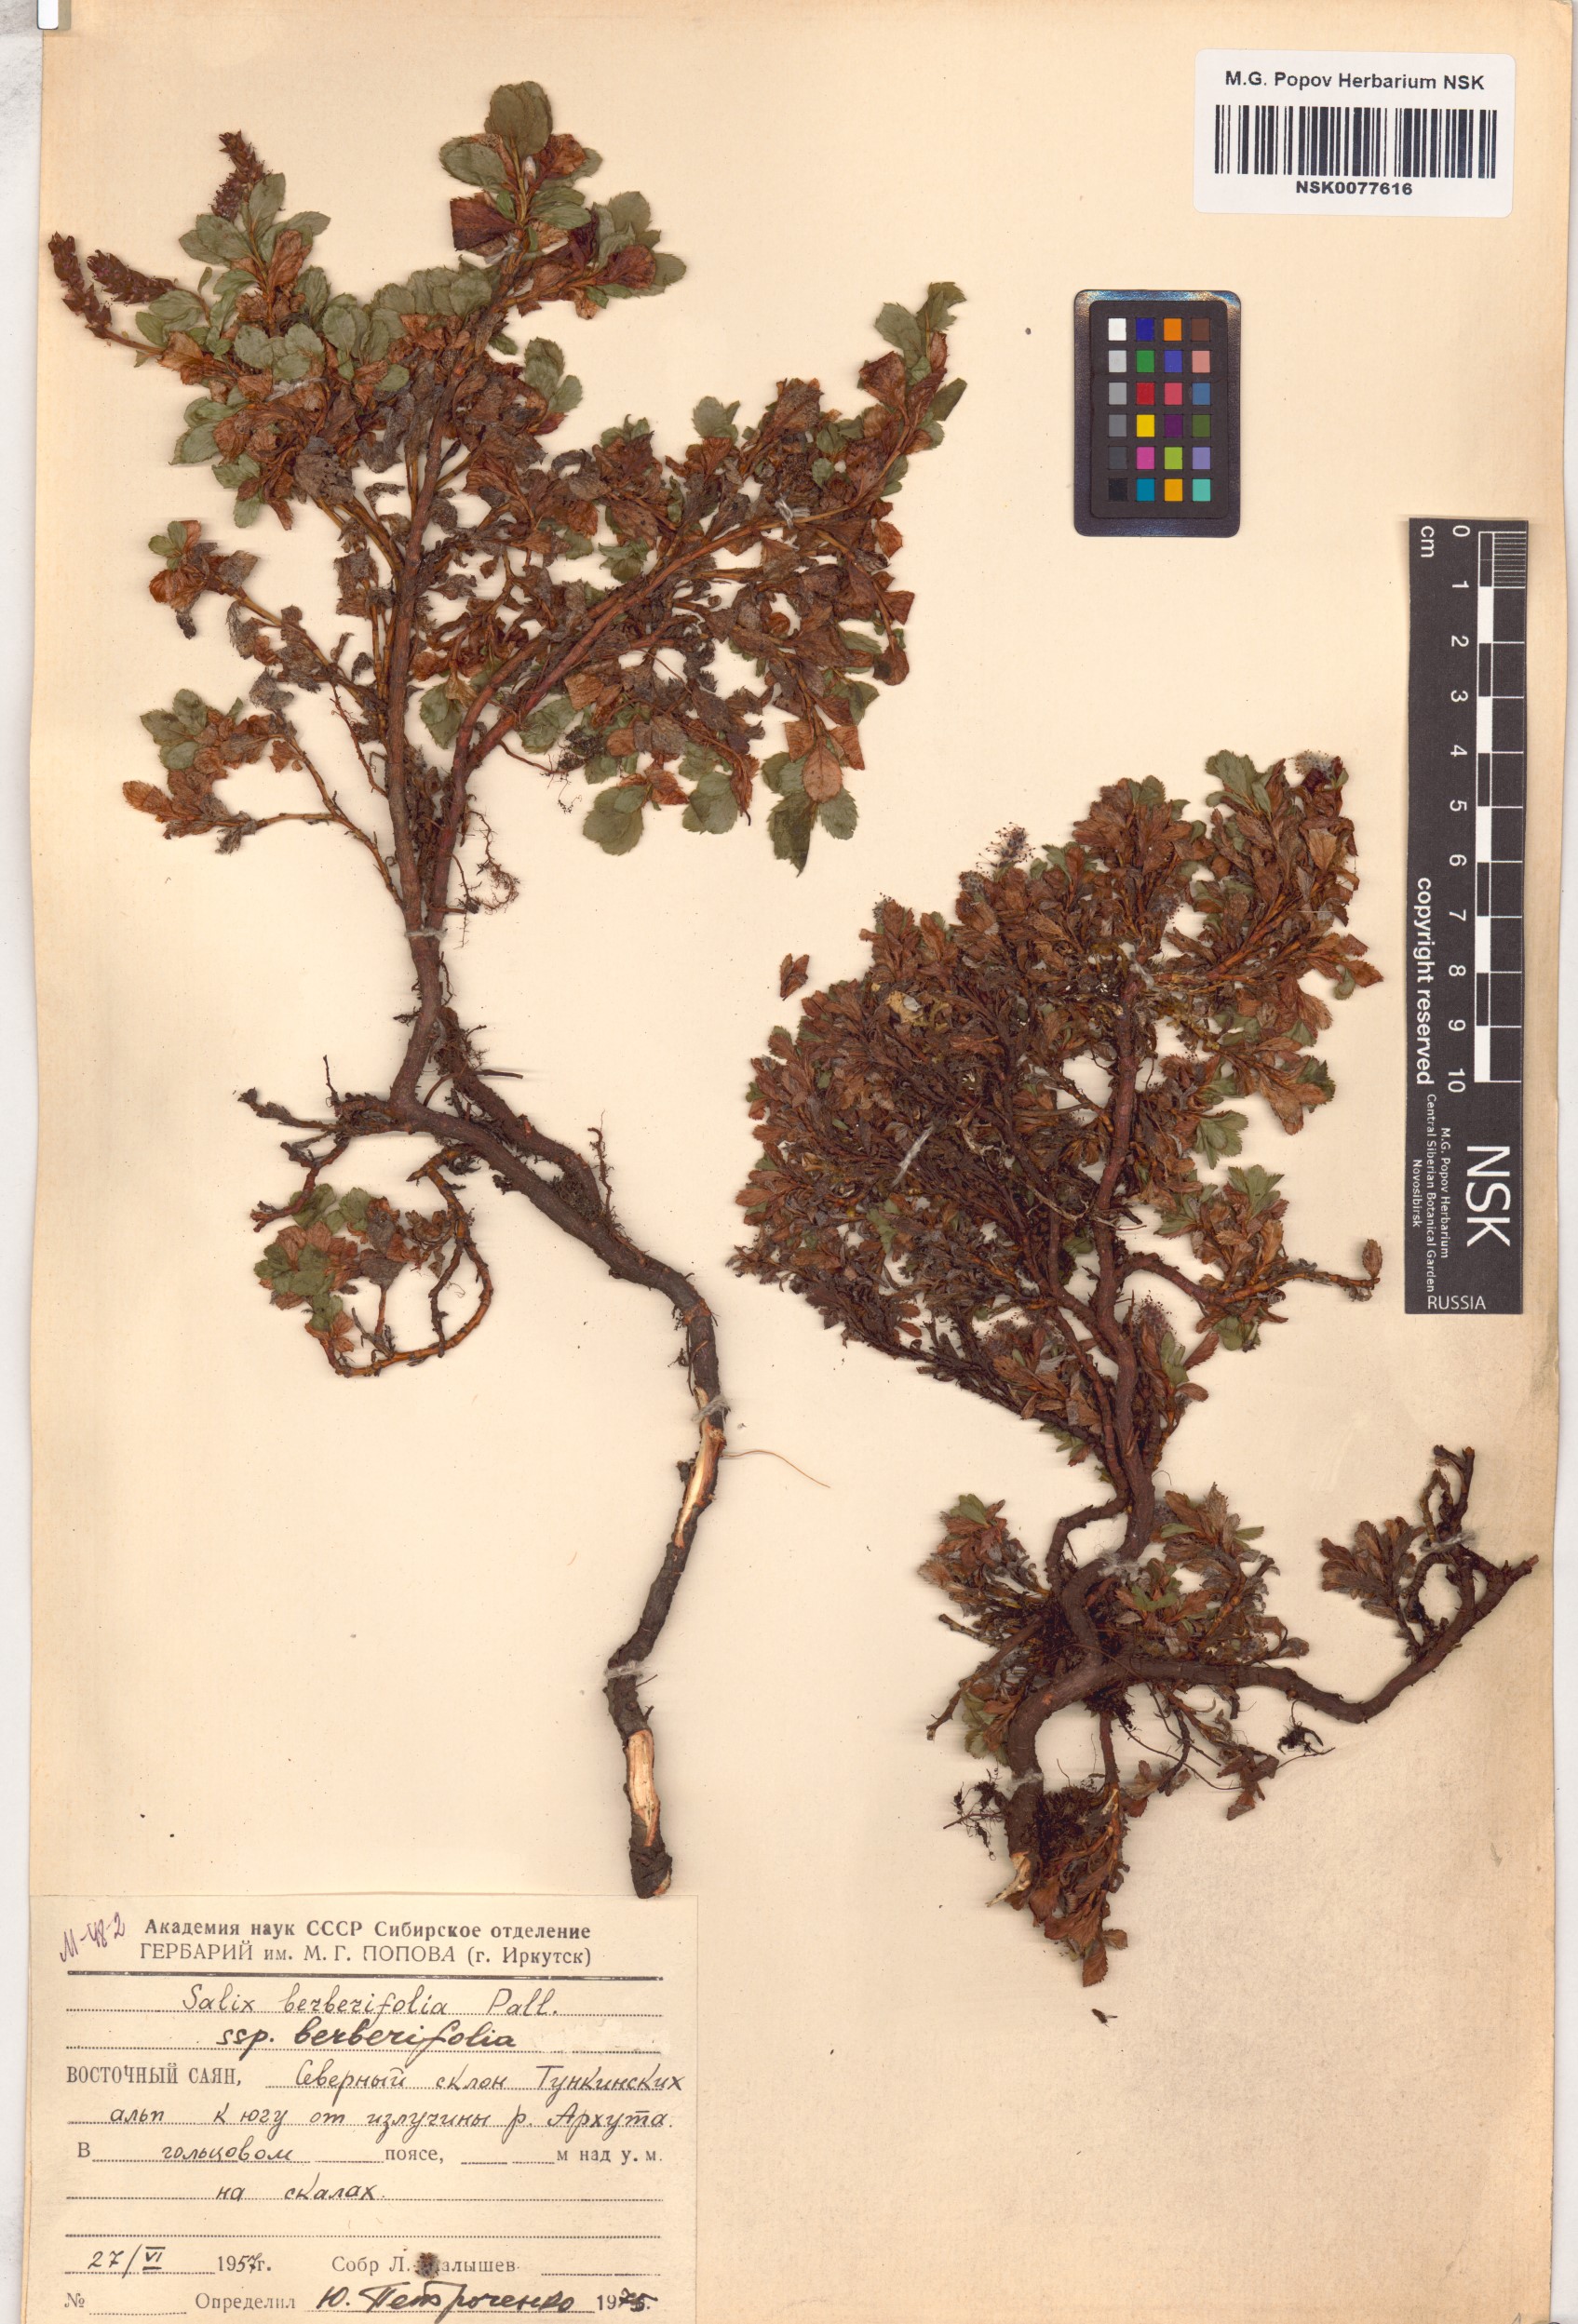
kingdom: Plantae
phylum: Tracheophyta
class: Magnoliopsida
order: Malpighiales
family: Salicaceae
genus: Salix
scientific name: Salix berberifolia
